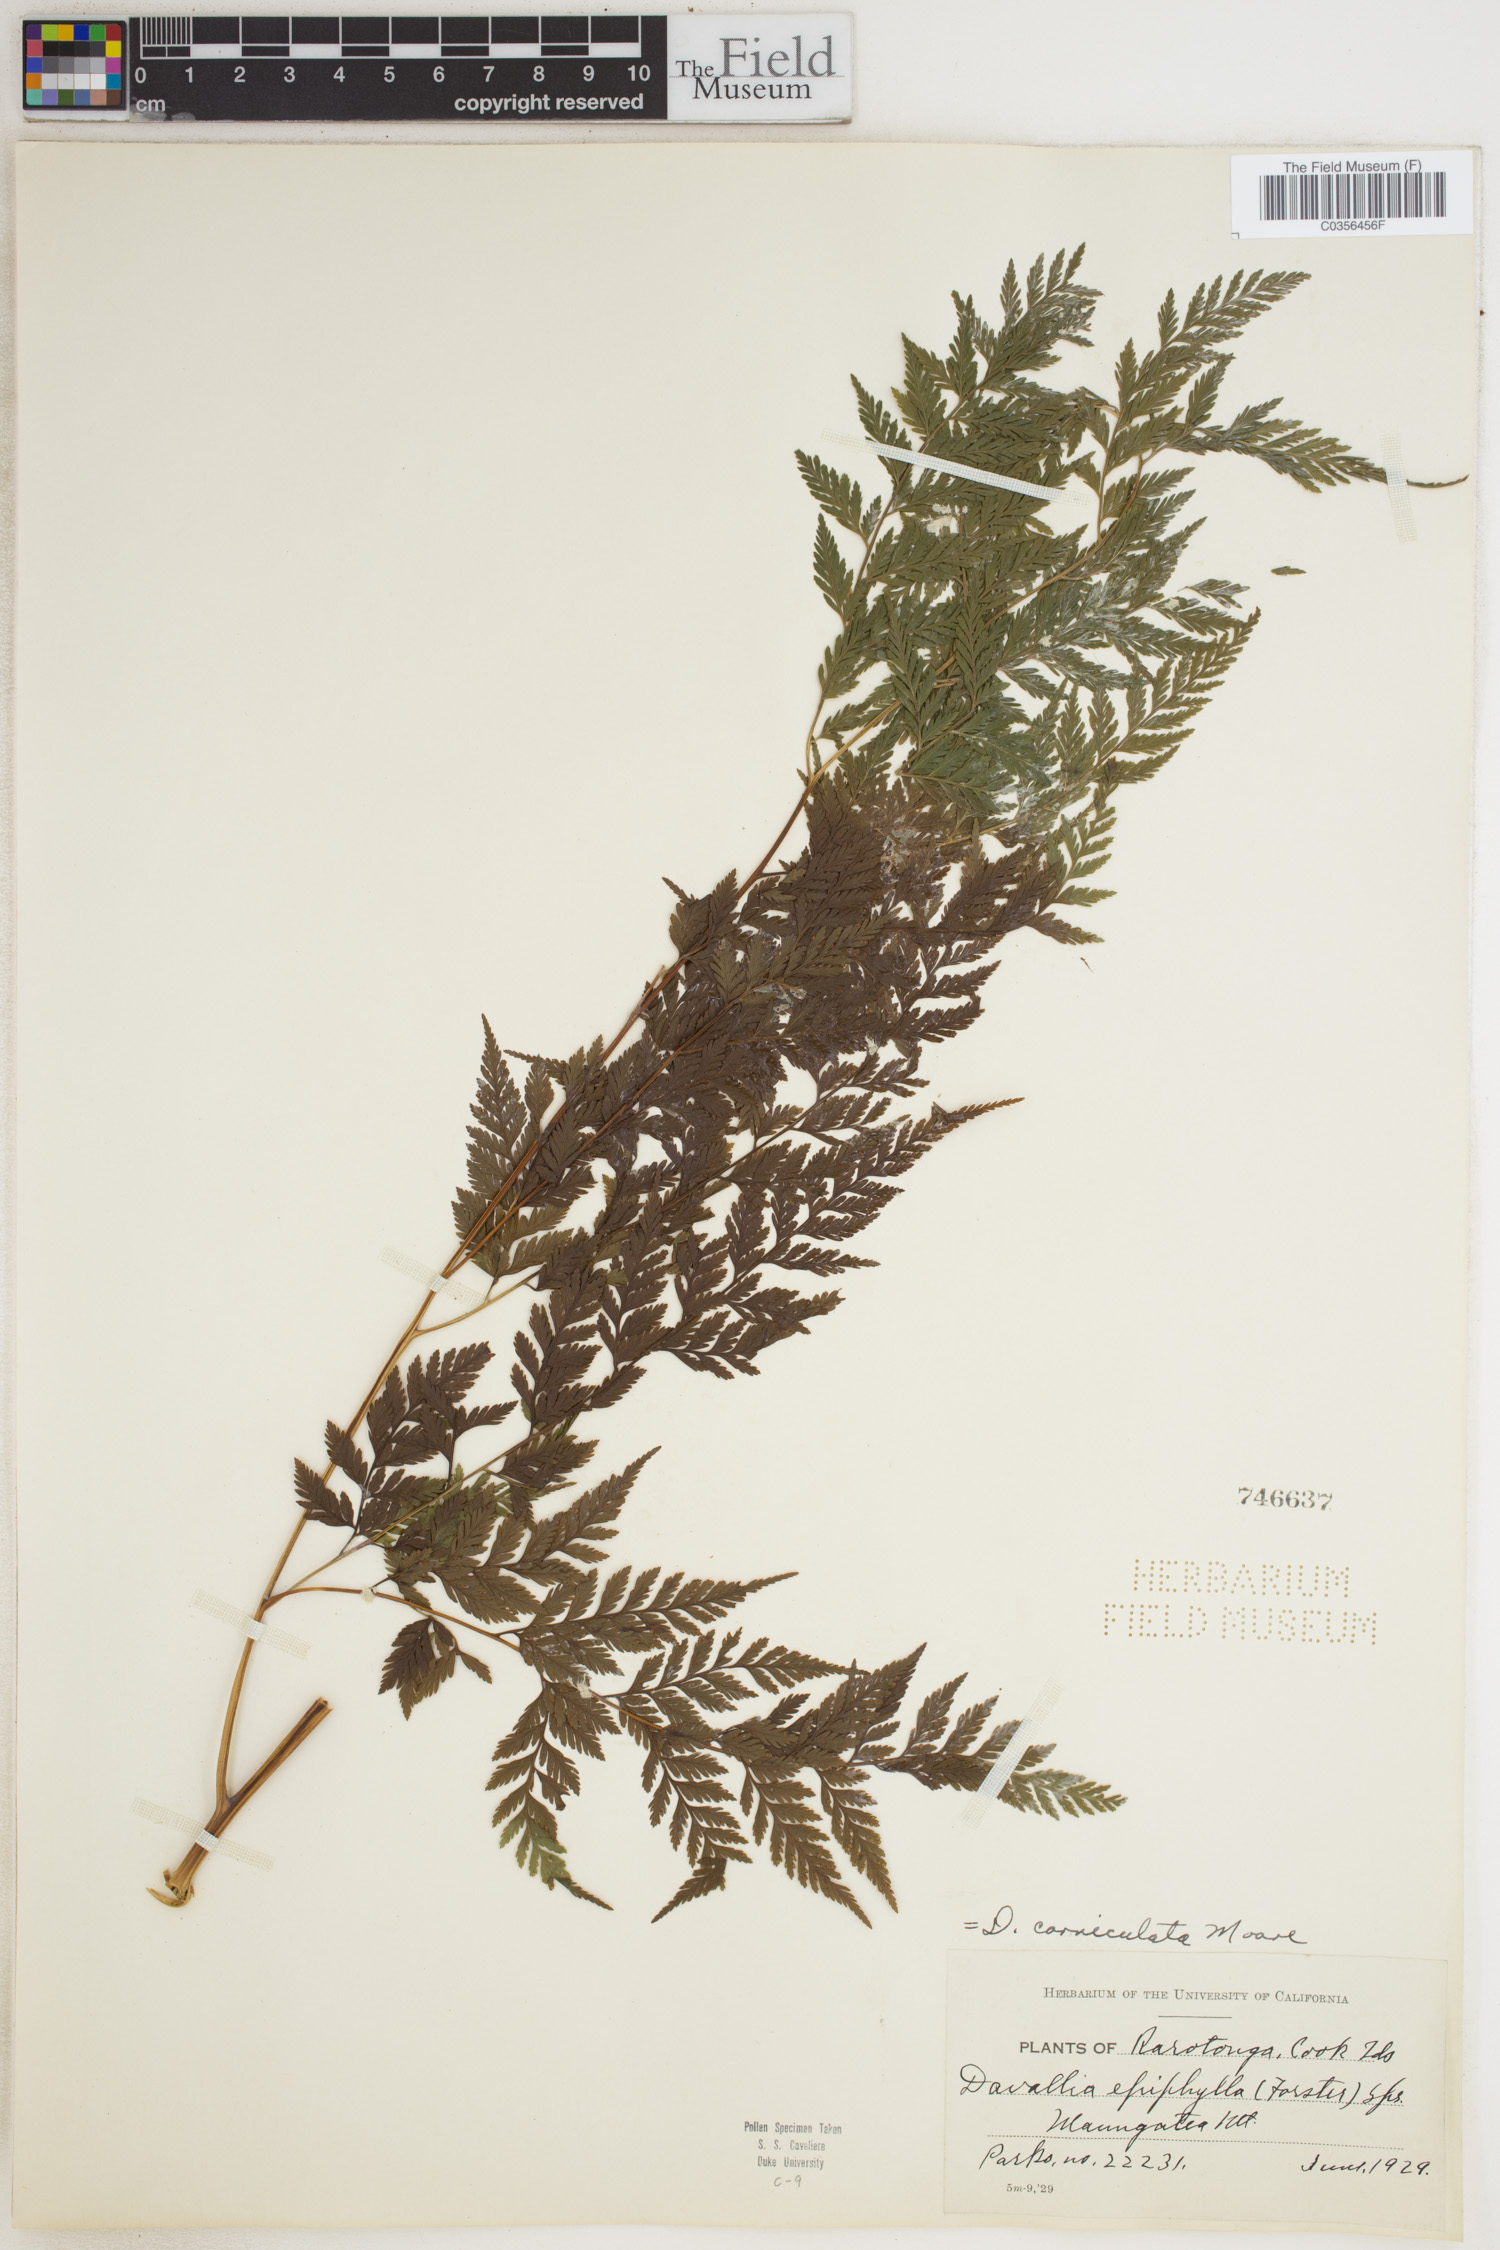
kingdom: Plantae
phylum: Tracheophyta
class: Polypodiopsida
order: Polypodiales
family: Davalliaceae
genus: Davallia
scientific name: Davallia corniculata
